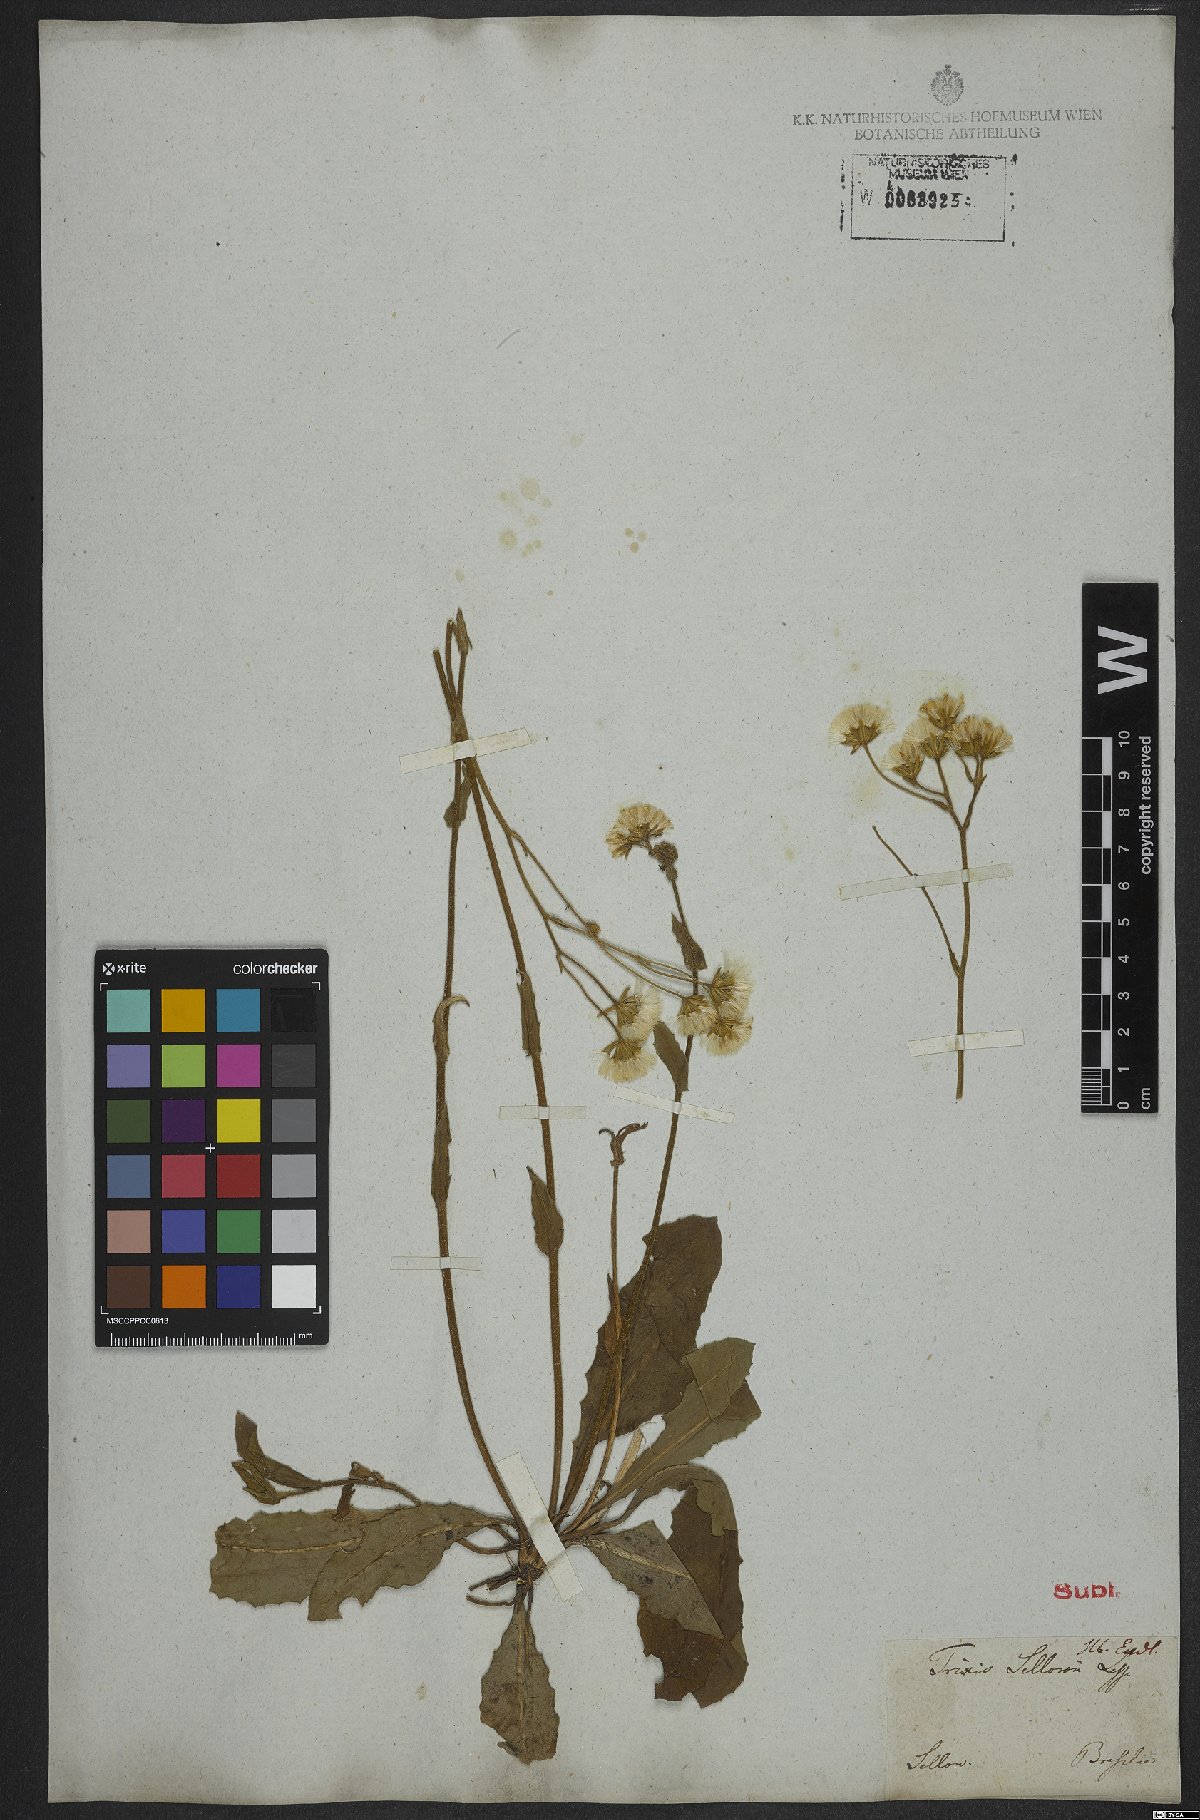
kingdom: Plantae
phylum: Tracheophyta
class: Magnoliopsida
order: Asterales
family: Asteraceae
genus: Holocheilus
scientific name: Holocheilus brasiliensis
